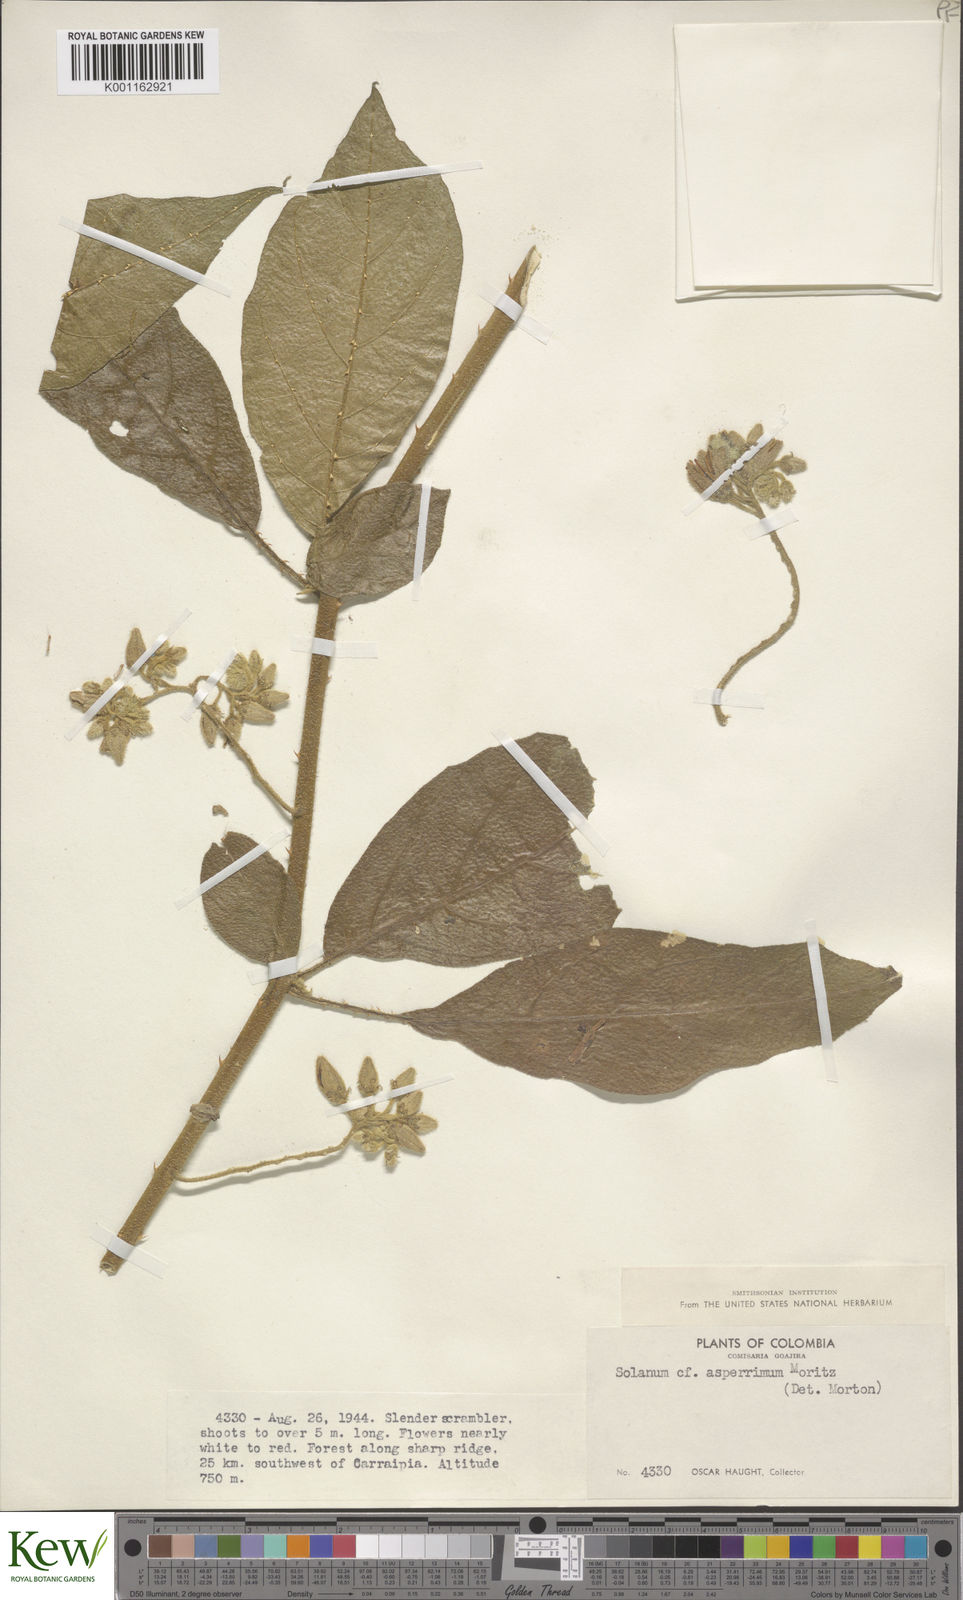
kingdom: Plantae
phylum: Tracheophyta
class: Magnoliopsida
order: Solanales
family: Solanaceae
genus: Solanum
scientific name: Solanum aturense
